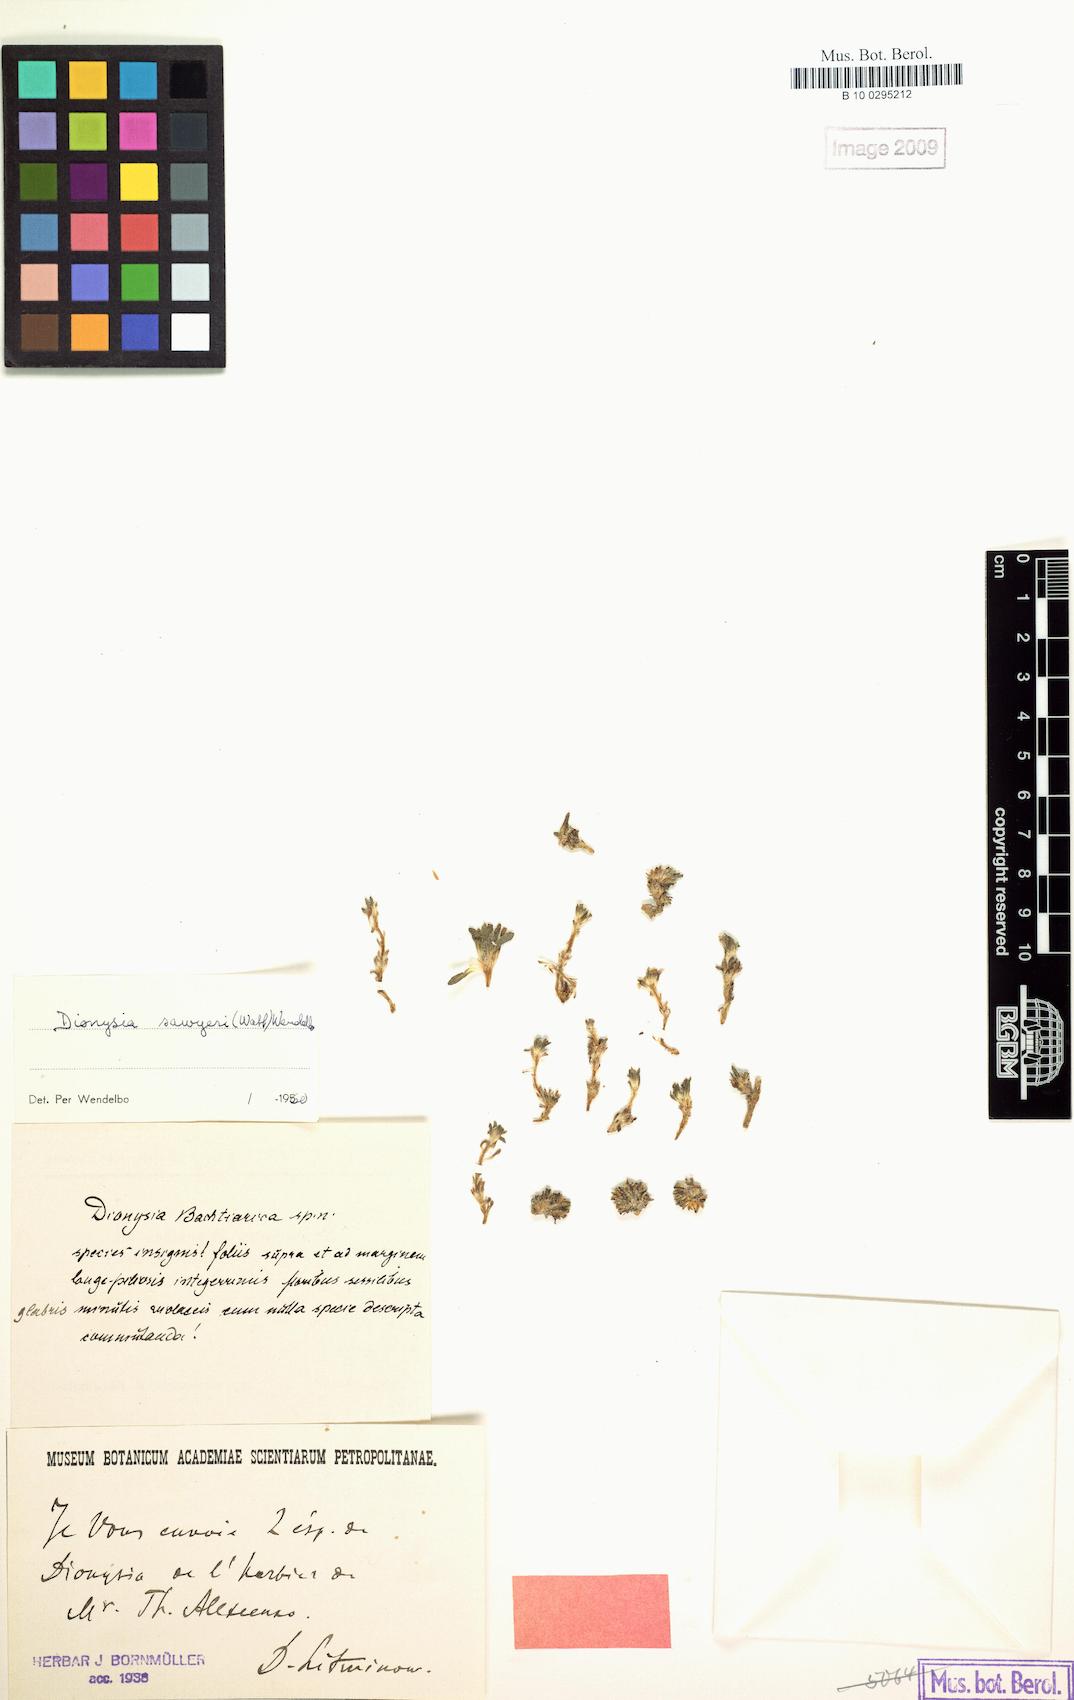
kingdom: Plantae
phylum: Tracheophyta
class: Magnoliopsida
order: Ericales
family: Primulaceae
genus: Dionysia
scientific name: Dionysia archibaldii
